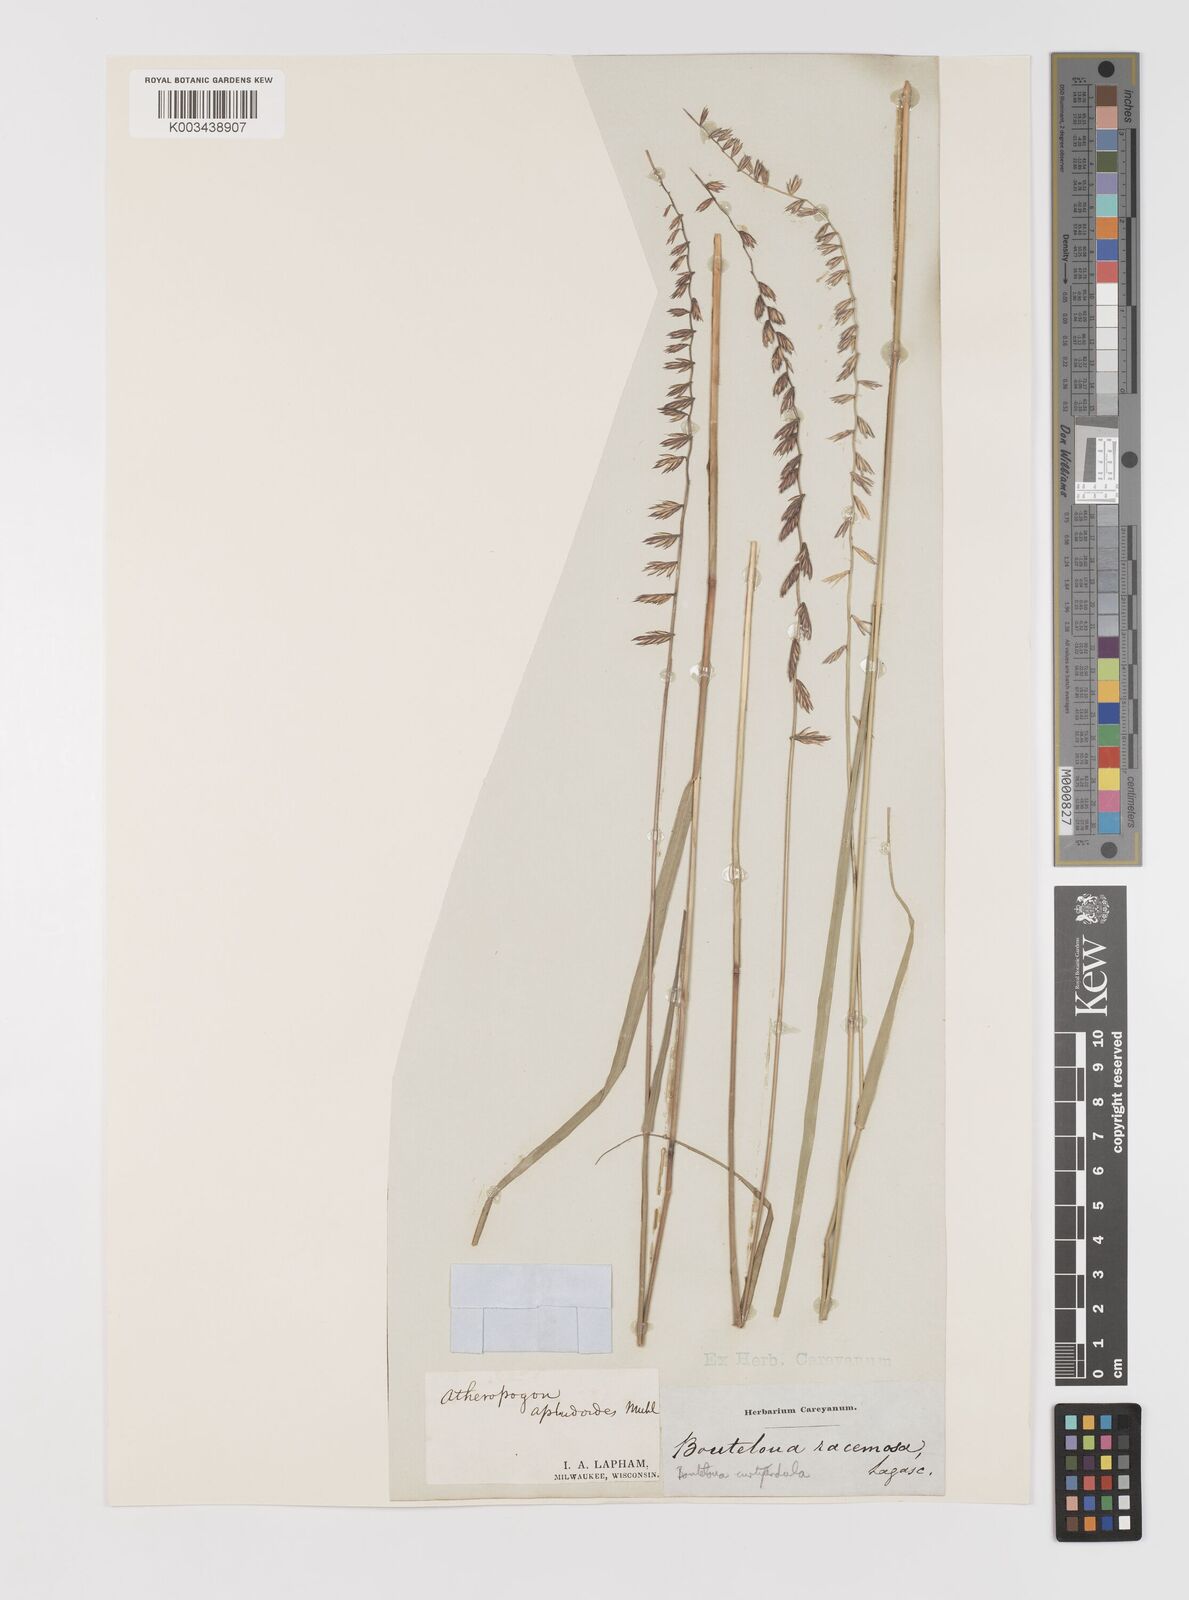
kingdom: Plantae
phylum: Tracheophyta
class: Liliopsida
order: Poales
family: Poaceae
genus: Bouteloua
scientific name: Bouteloua curtipendula
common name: Side-oats grama
